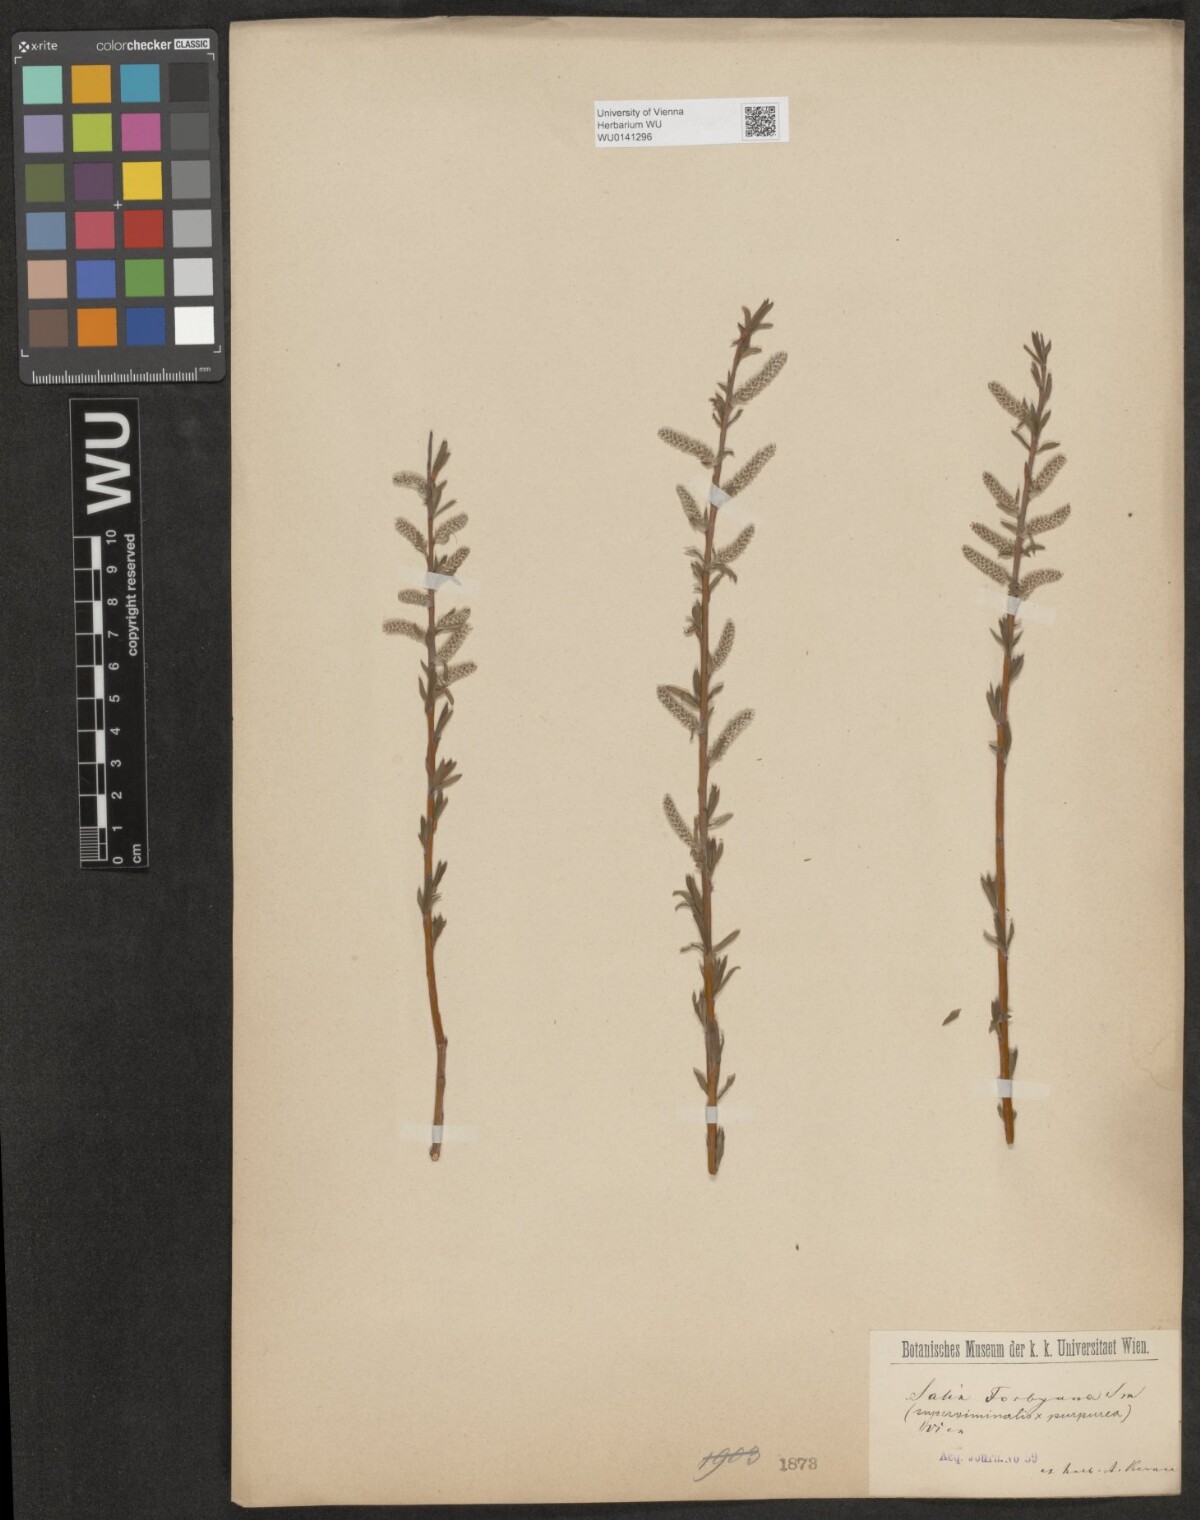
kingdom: Plantae
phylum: Tracheophyta
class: Magnoliopsida
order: Malpighiales
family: Salicaceae
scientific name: Salicaceae
